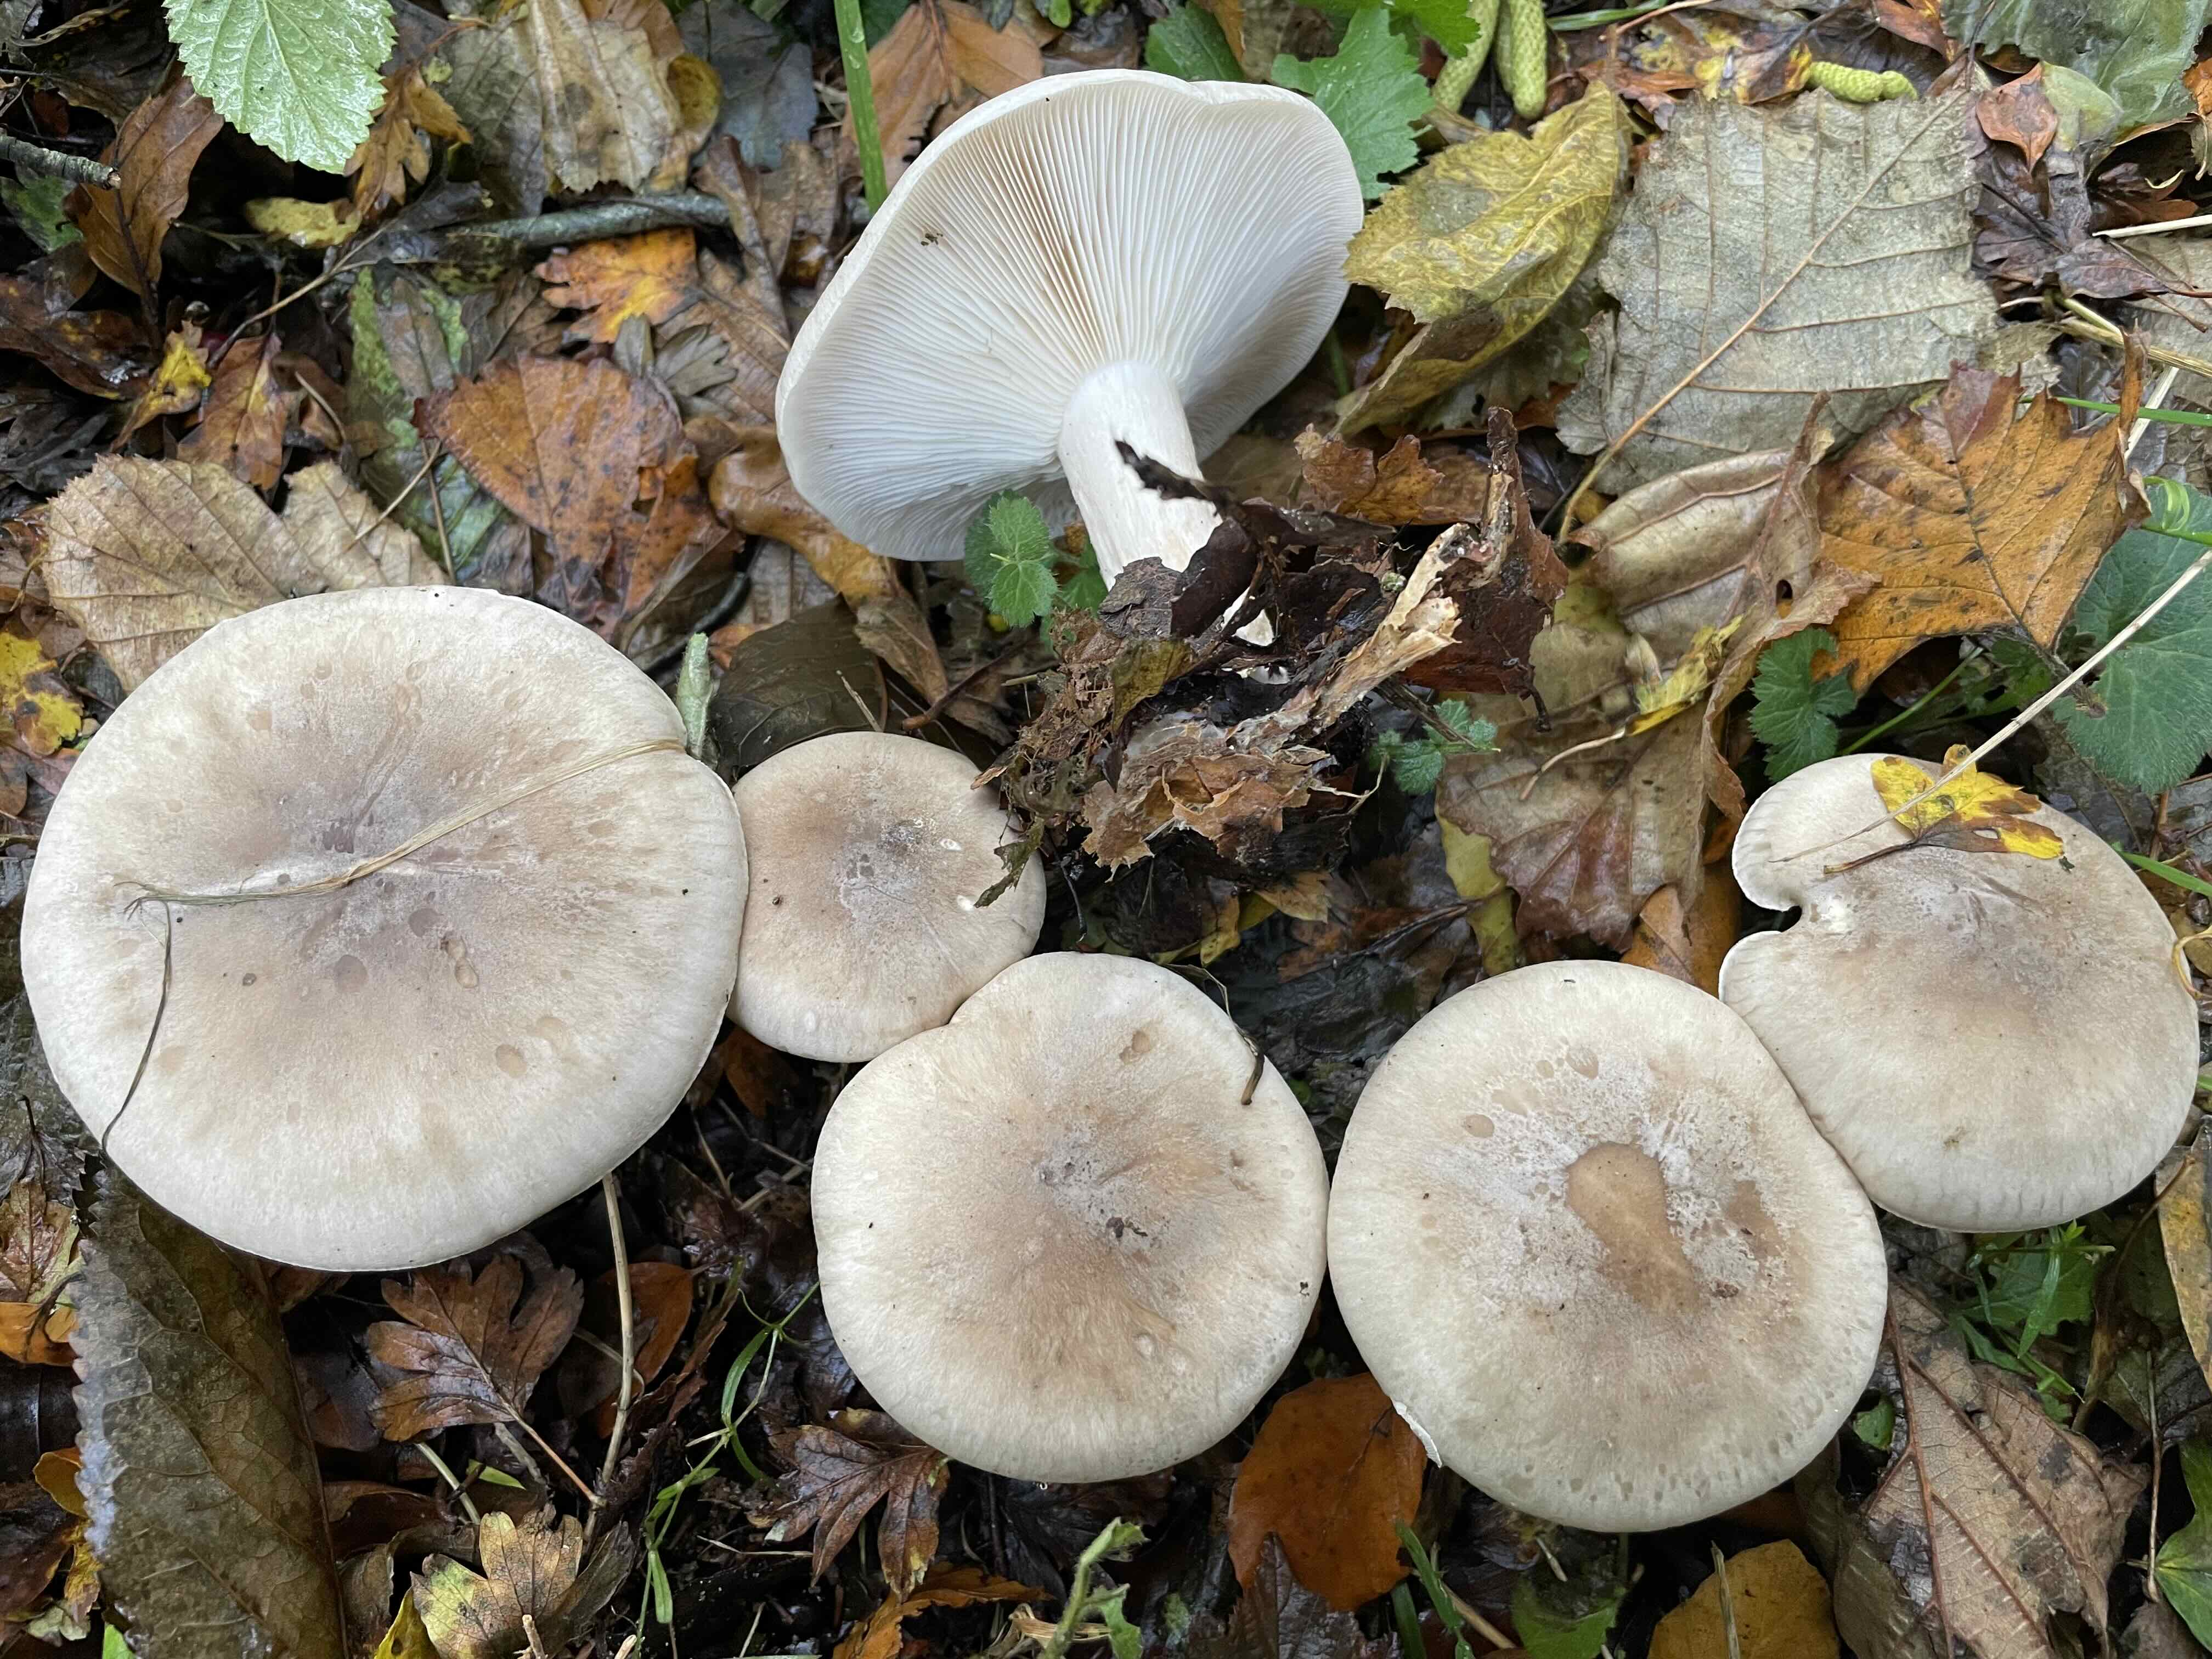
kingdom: Fungi
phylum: Basidiomycota
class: Agaricomycetes
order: Agaricales
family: Tricholomataceae
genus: Clitocybe
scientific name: Clitocybe nebularis
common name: tåge-tragthat
